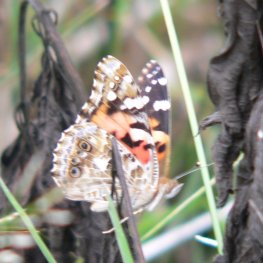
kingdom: Animalia
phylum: Arthropoda
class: Insecta
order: Lepidoptera
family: Nymphalidae
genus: Vanessa
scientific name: Vanessa cardui
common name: Painted Lady
